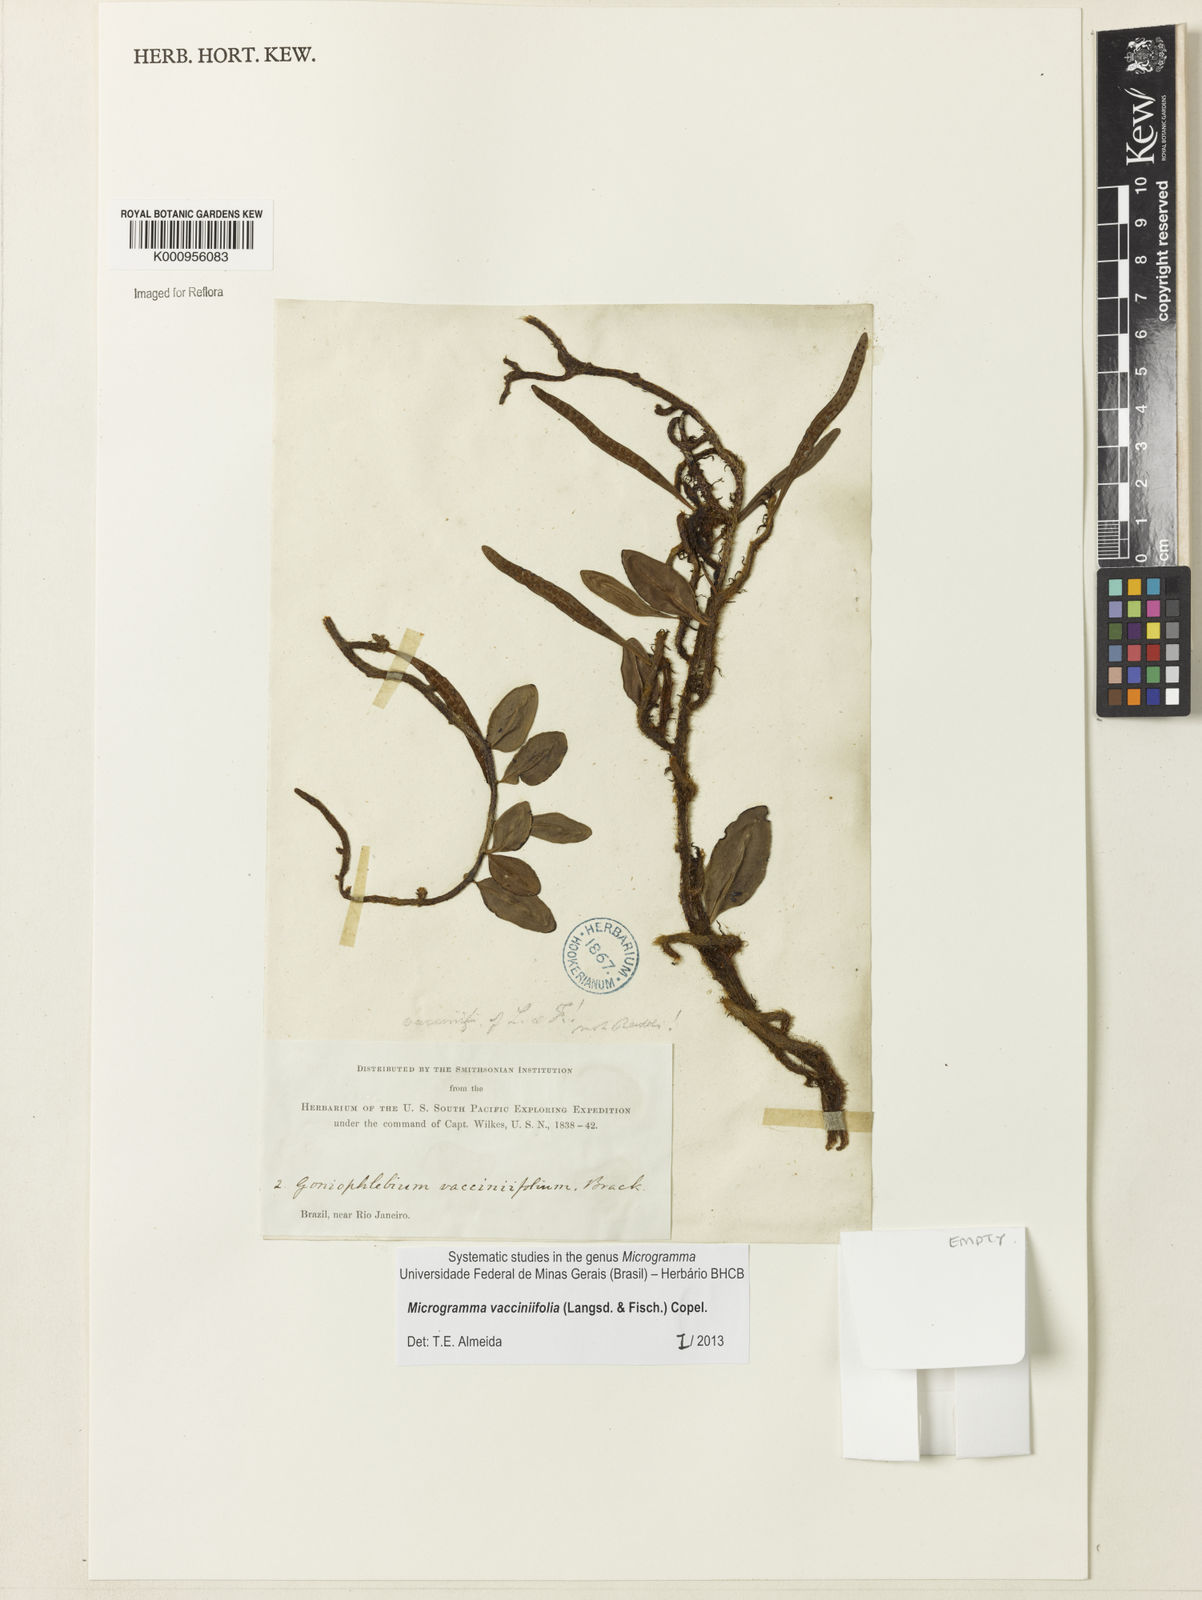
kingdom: Plantae
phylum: Tracheophyta
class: Polypodiopsida
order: Polypodiales
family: Polypodiaceae
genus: Phlebodium
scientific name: Phlebodium
